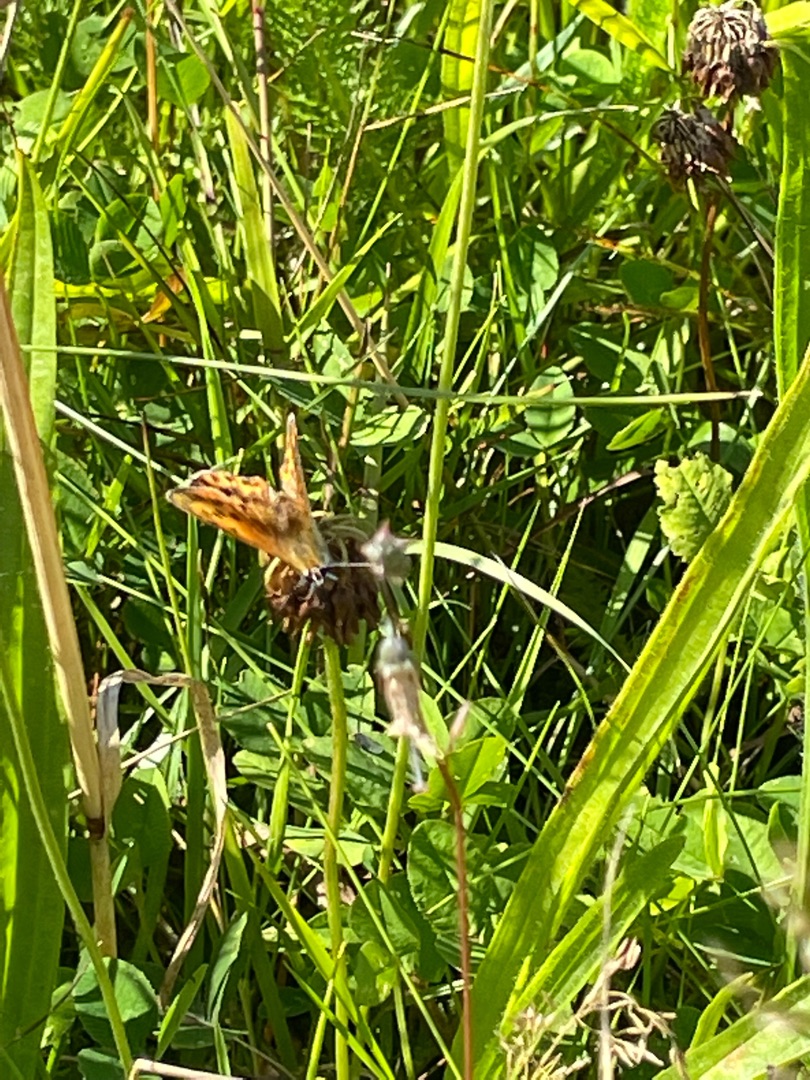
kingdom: Animalia
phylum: Arthropoda
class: Insecta
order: Lepidoptera
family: Lycaenidae
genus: Lycaena
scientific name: Lycaena virgaureae
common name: Dukatsommerfugl
